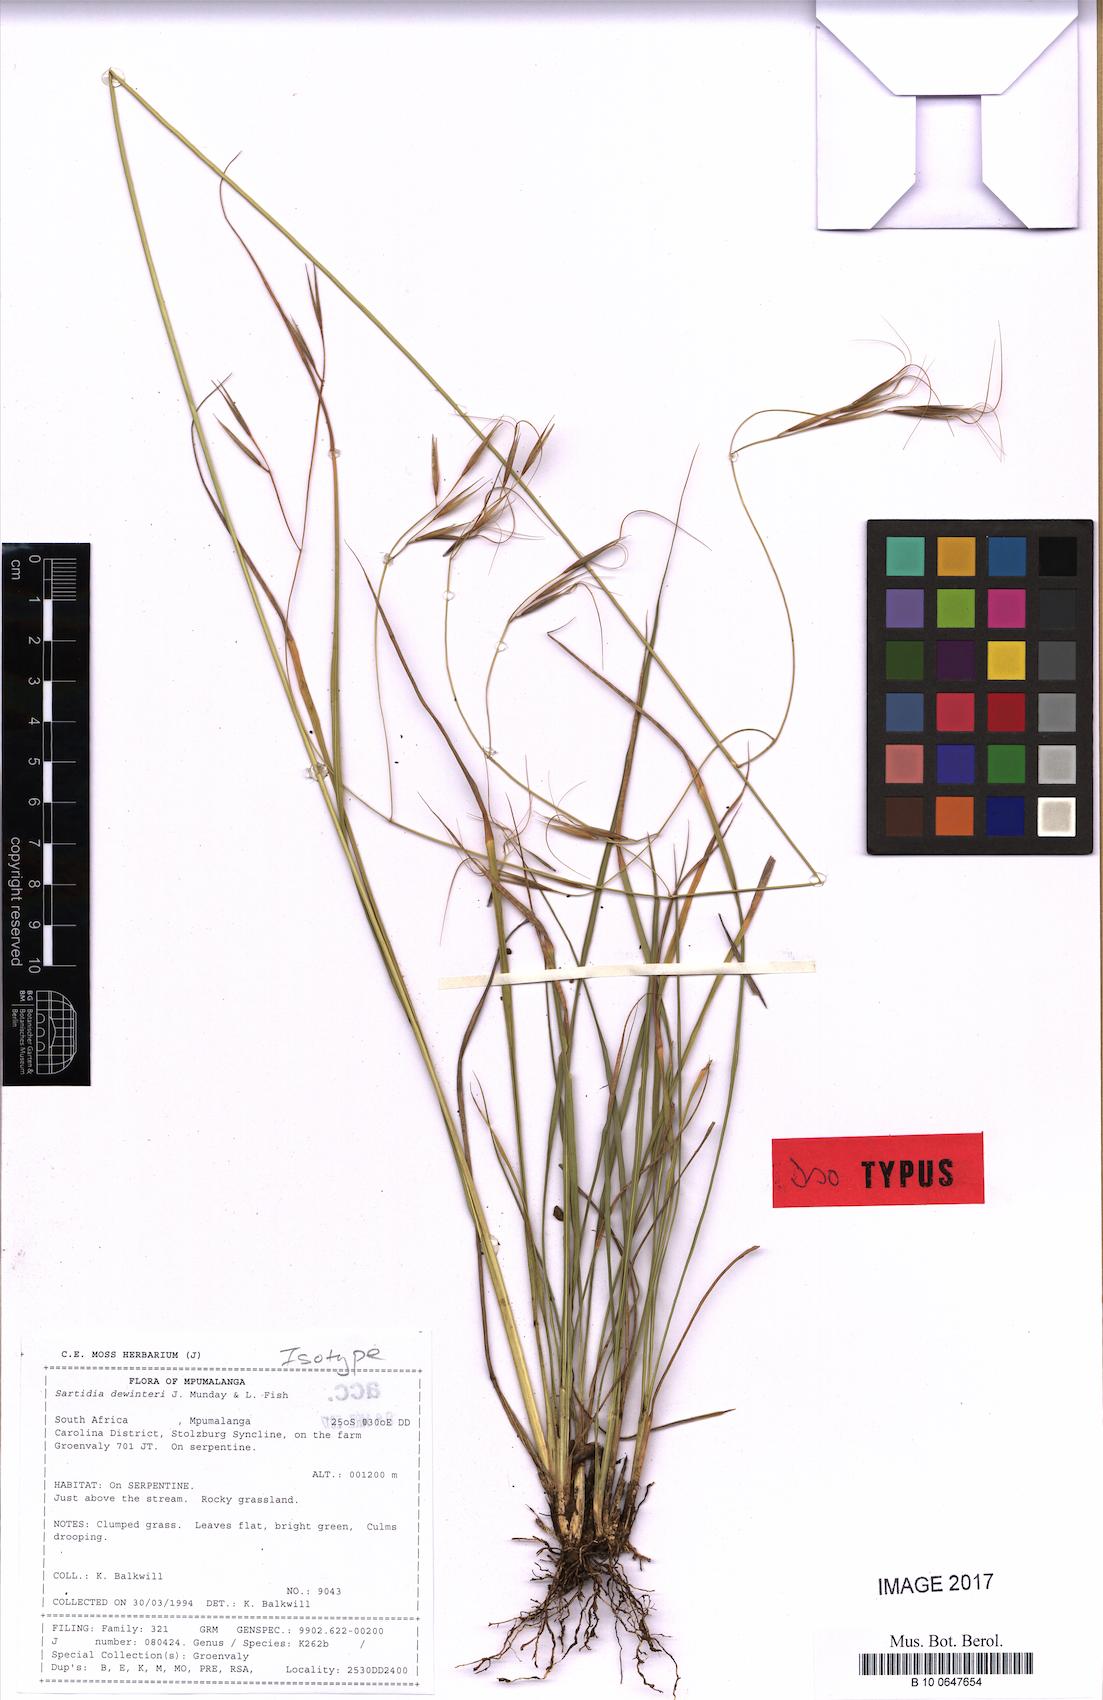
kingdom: Plantae
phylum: Tracheophyta
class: Liliopsida
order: Poales
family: Poaceae
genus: Sartidia
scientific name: Sartidia dewinteri
